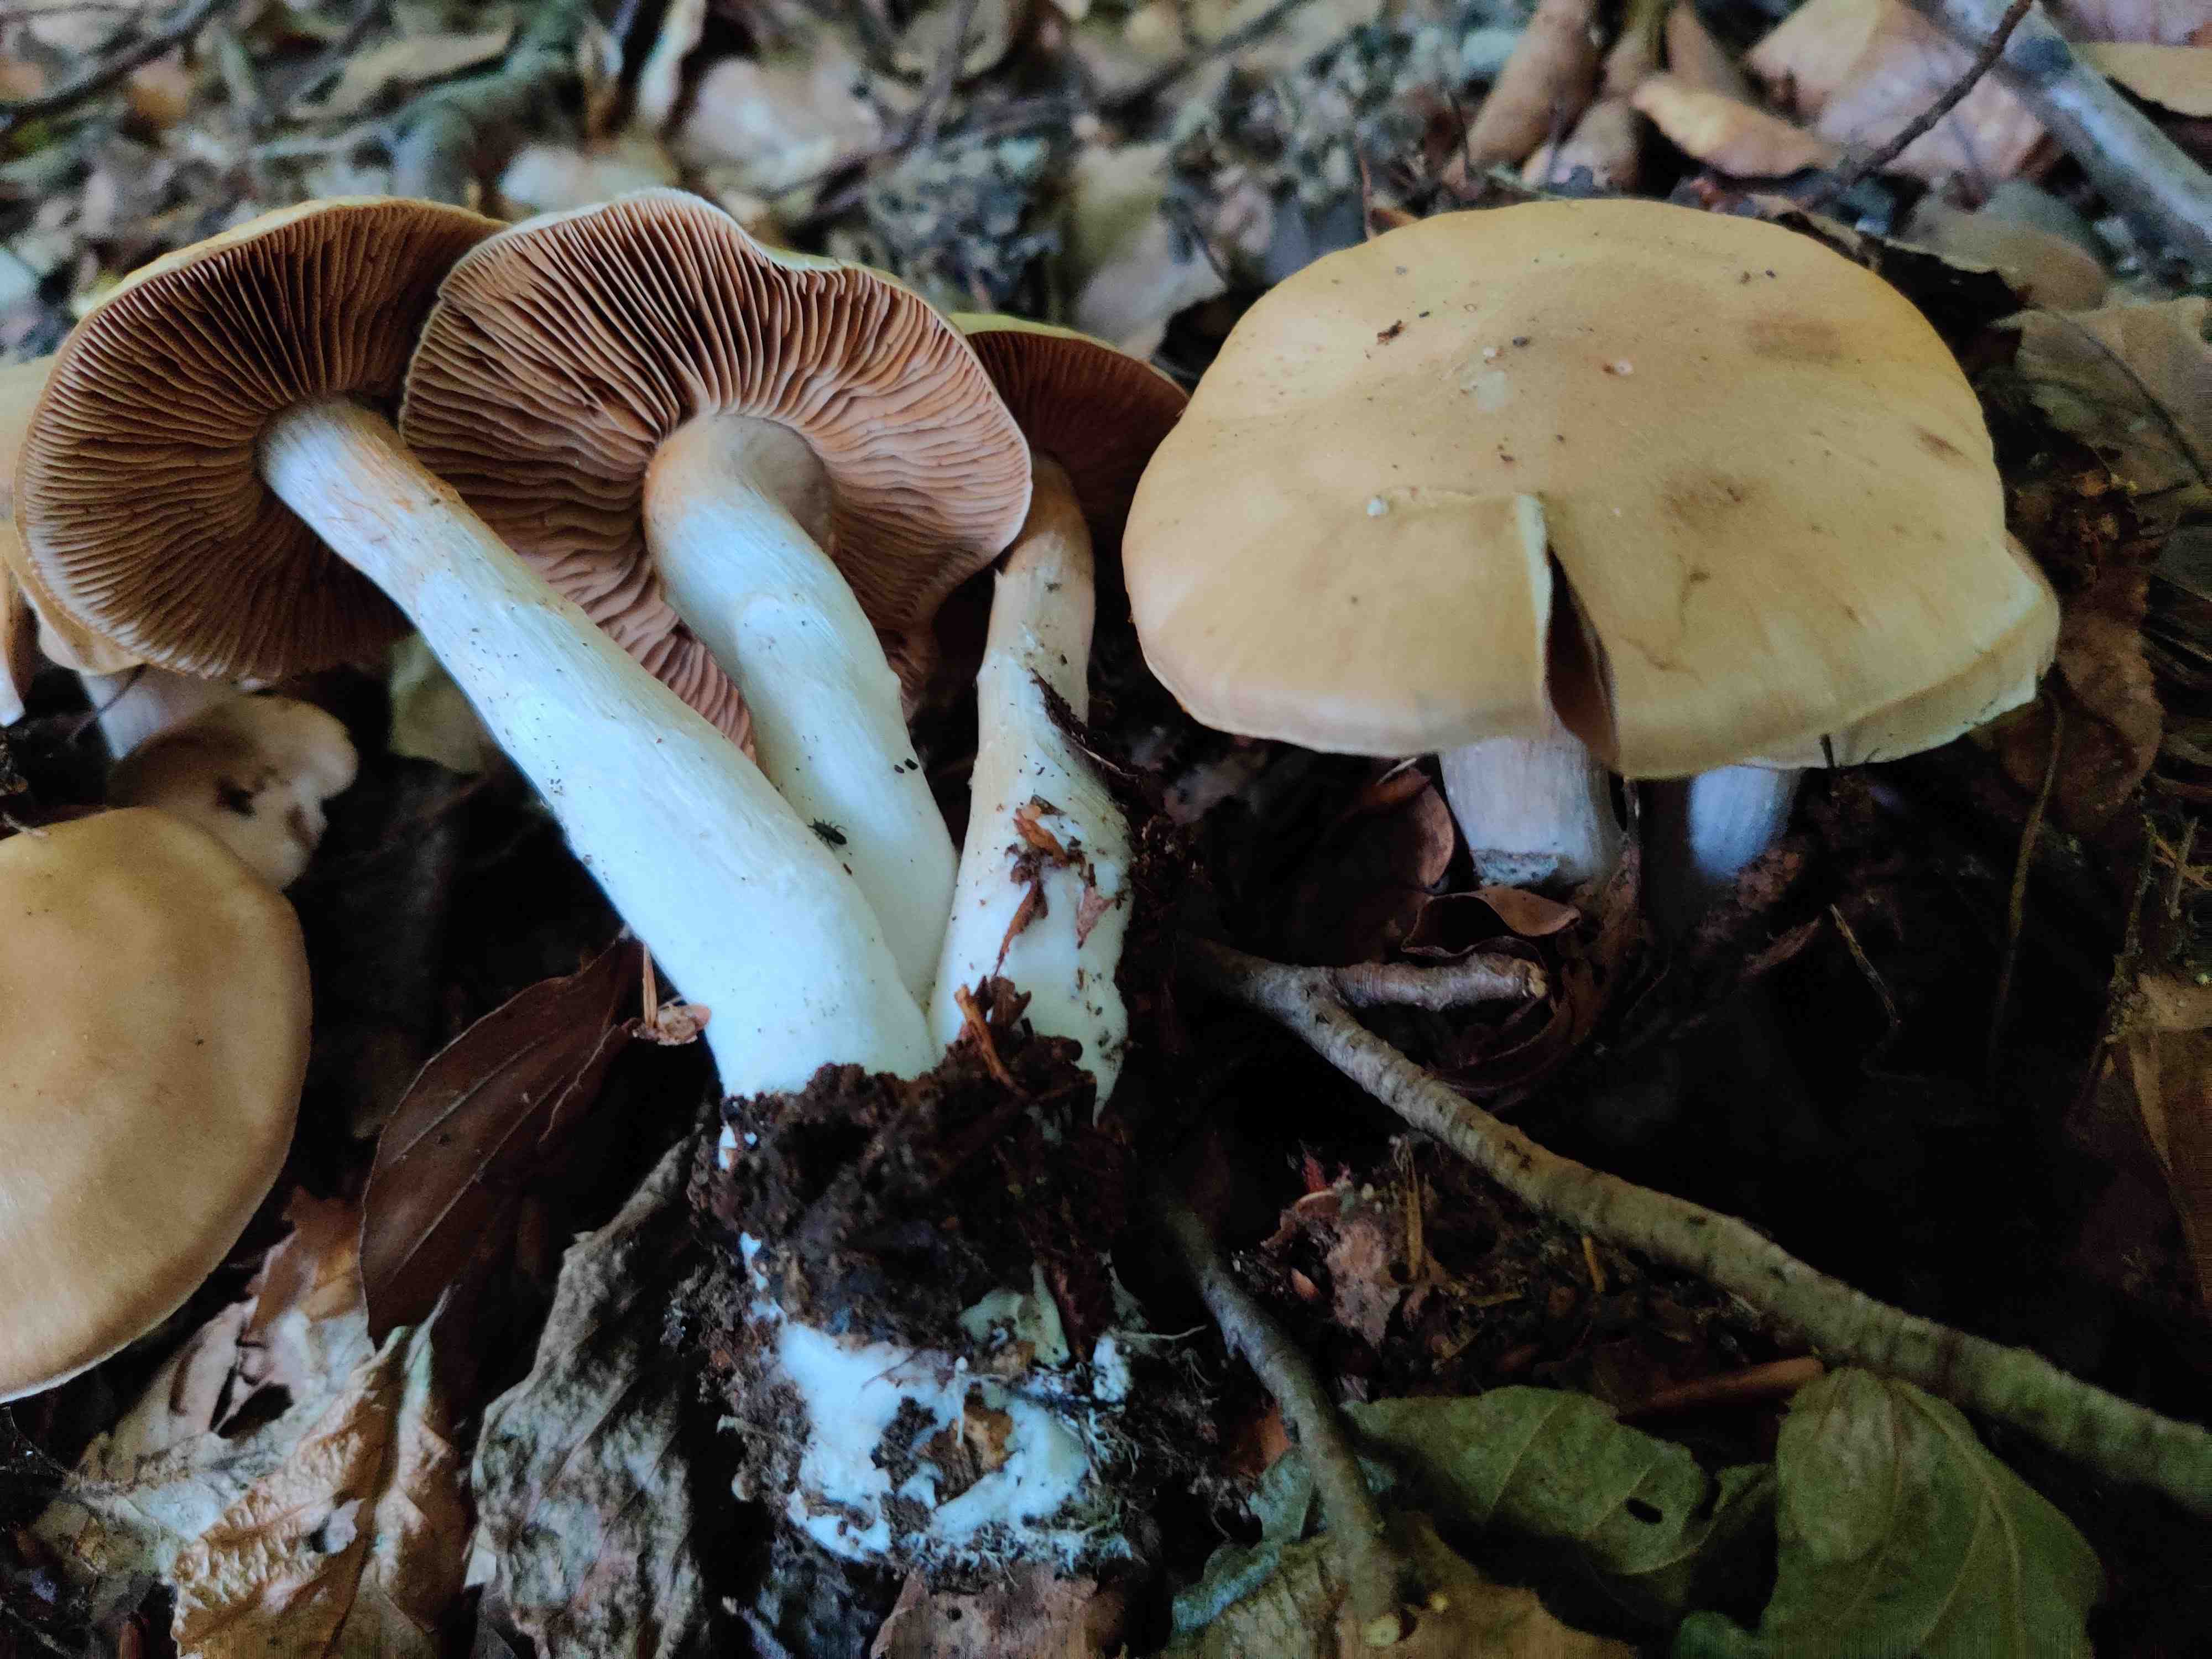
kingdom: Fungi
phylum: Basidiomycota
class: Agaricomycetes
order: Agaricales
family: Cortinariaceae
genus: Cortinarius
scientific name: Cortinarius
